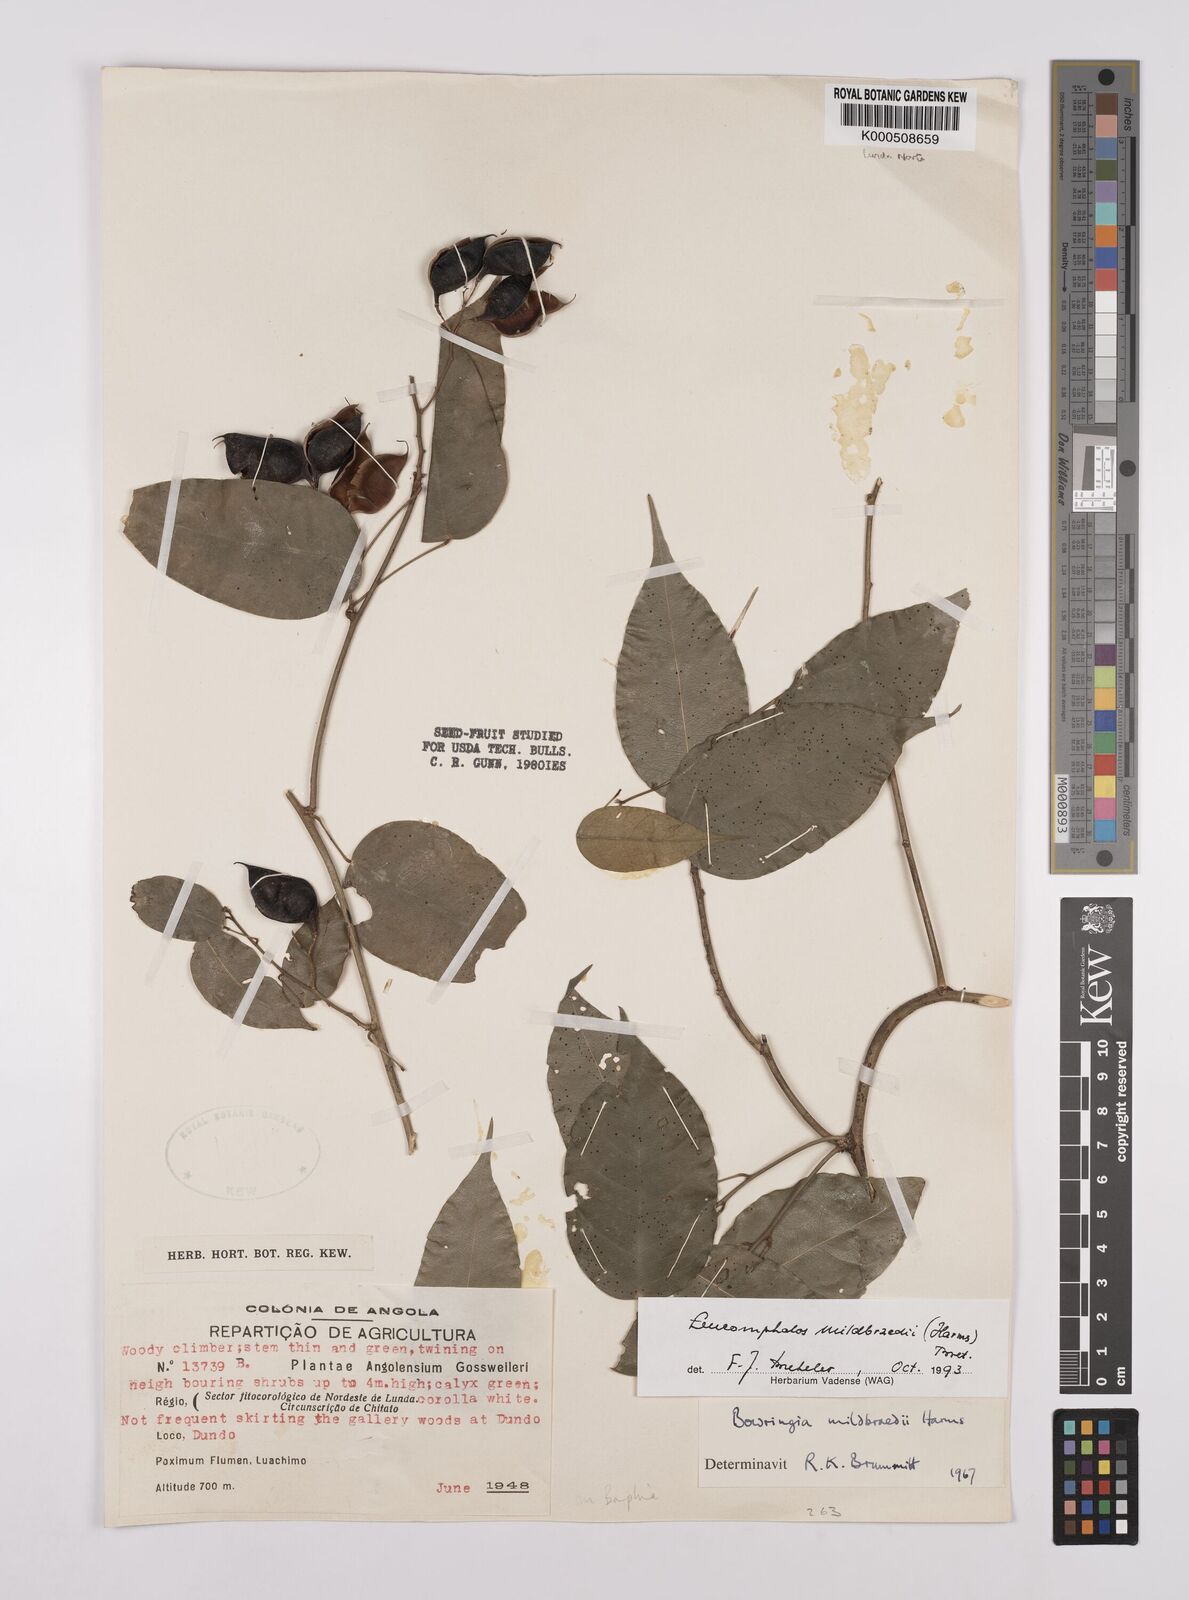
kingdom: Plantae
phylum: Tracheophyta
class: Magnoliopsida
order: Fabales
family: Fabaceae
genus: Bowringia
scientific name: Bowringia mildbraedii
